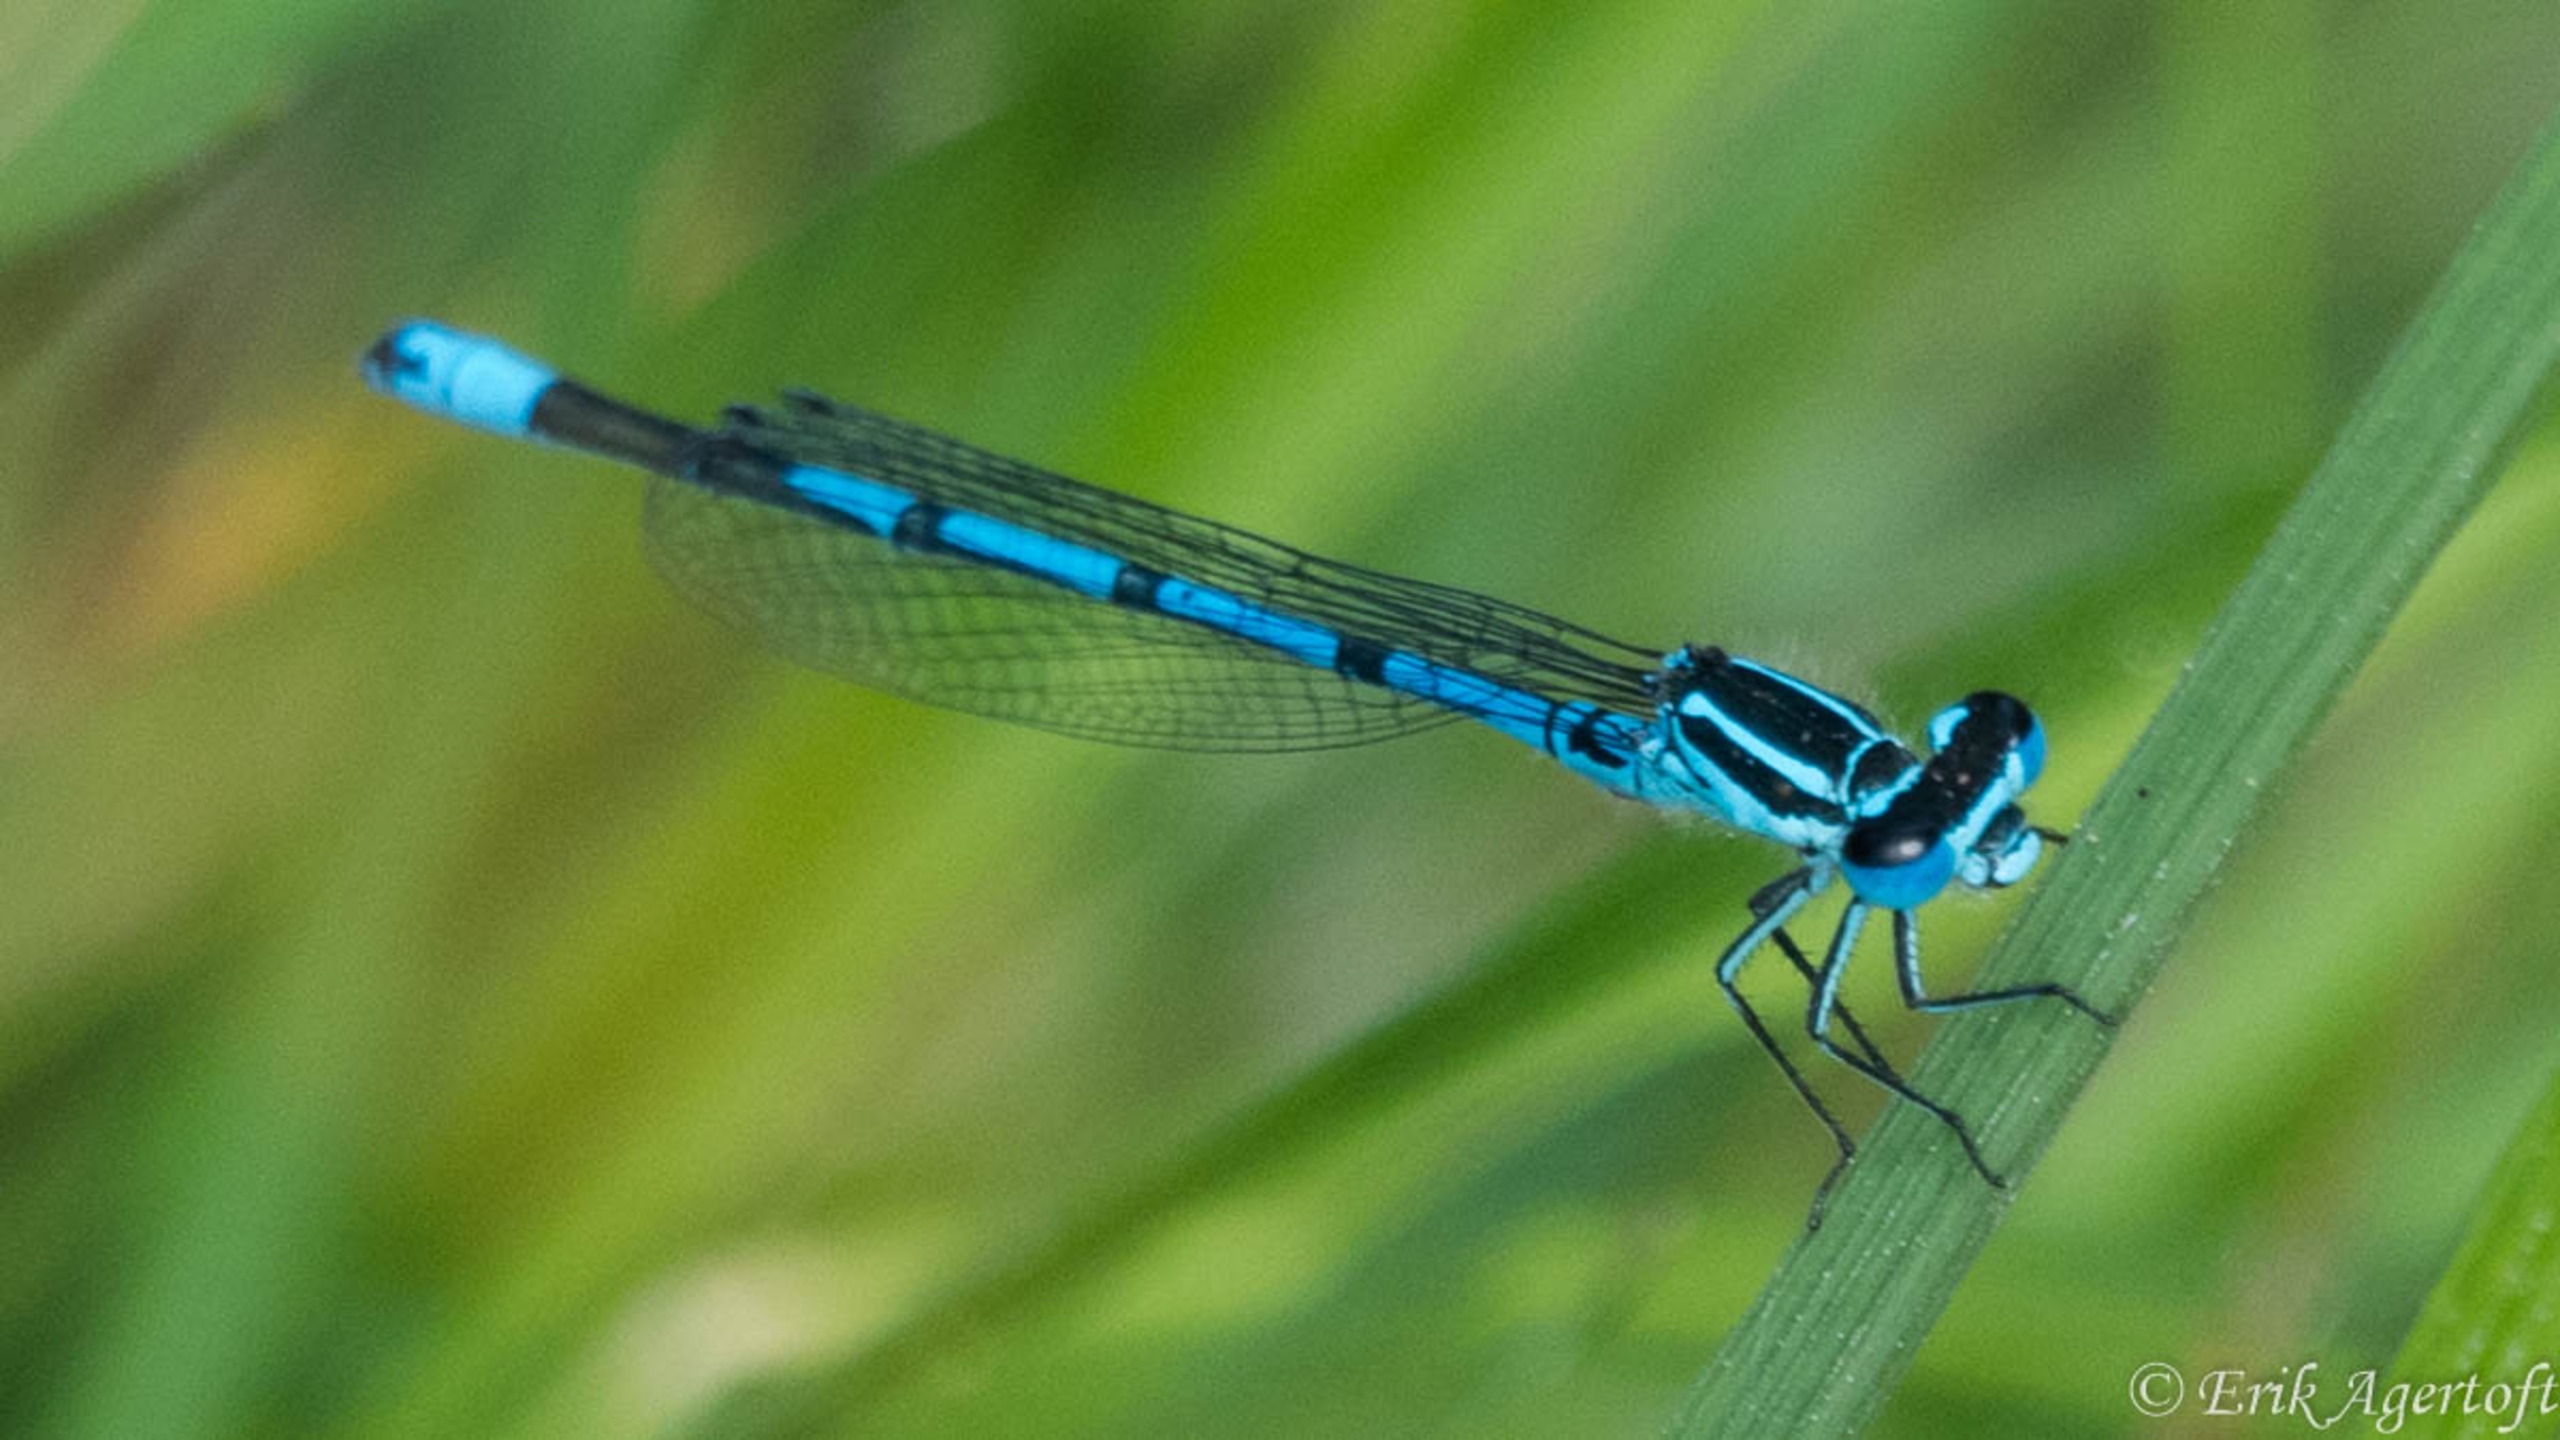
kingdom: Animalia
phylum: Arthropoda
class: Insecta
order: Odonata
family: Coenagrionidae
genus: Coenagrion
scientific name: Coenagrion puella
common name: Hestesko-vandnymfe
